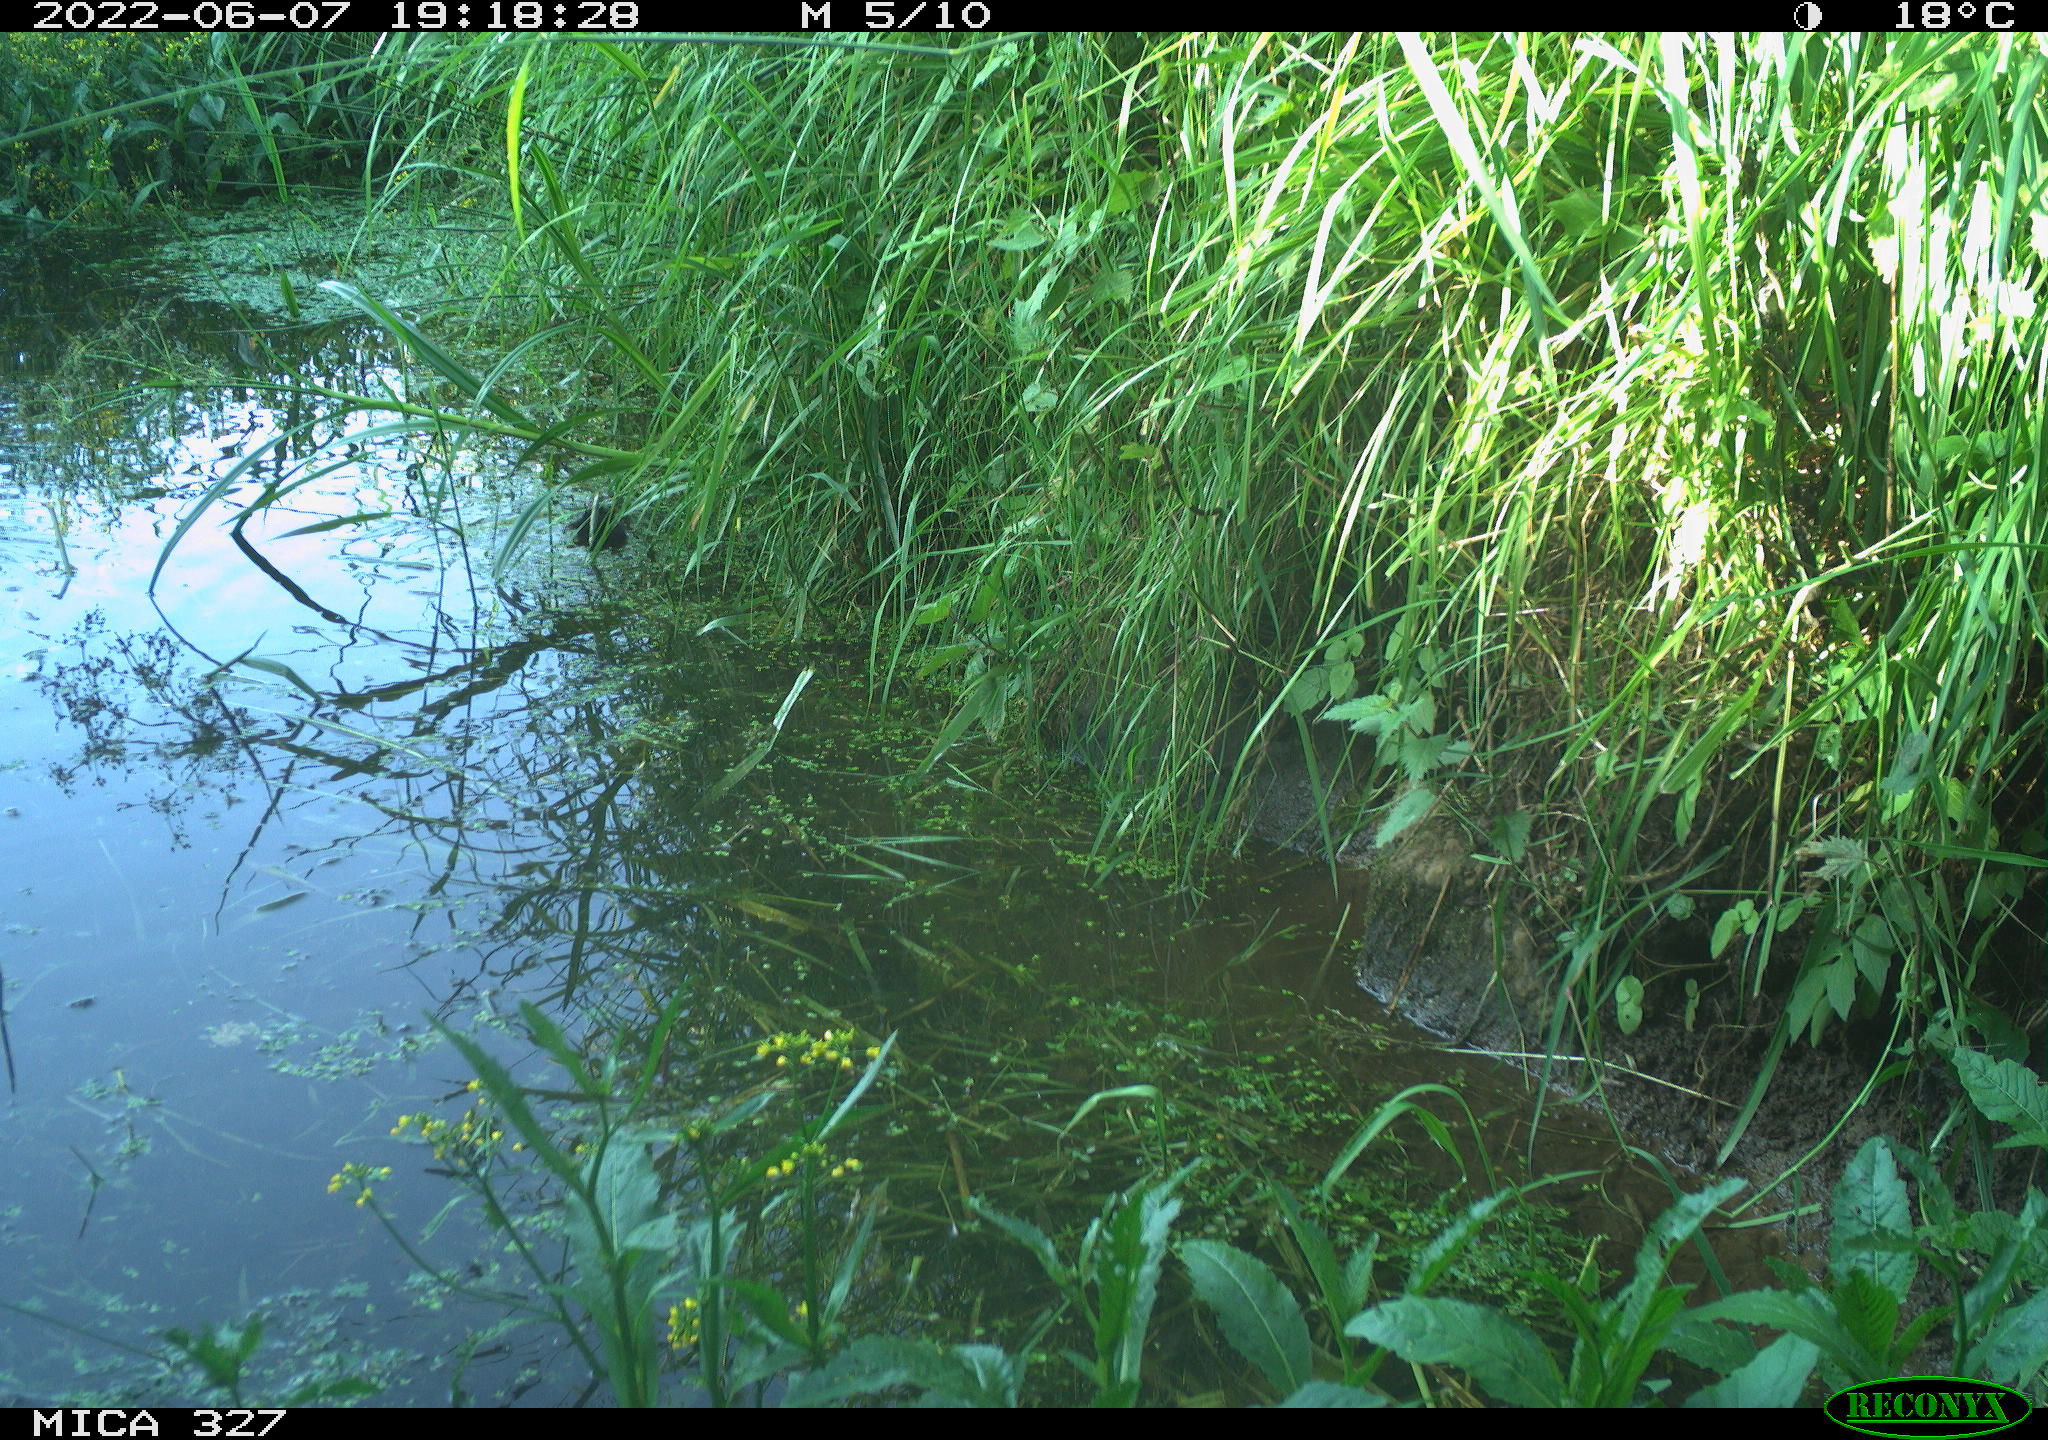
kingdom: Animalia
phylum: Chordata
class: Aves
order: Gruiformes
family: Rallidae
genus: Gallinula
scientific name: Gallinula chloropus
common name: Common moorhen
